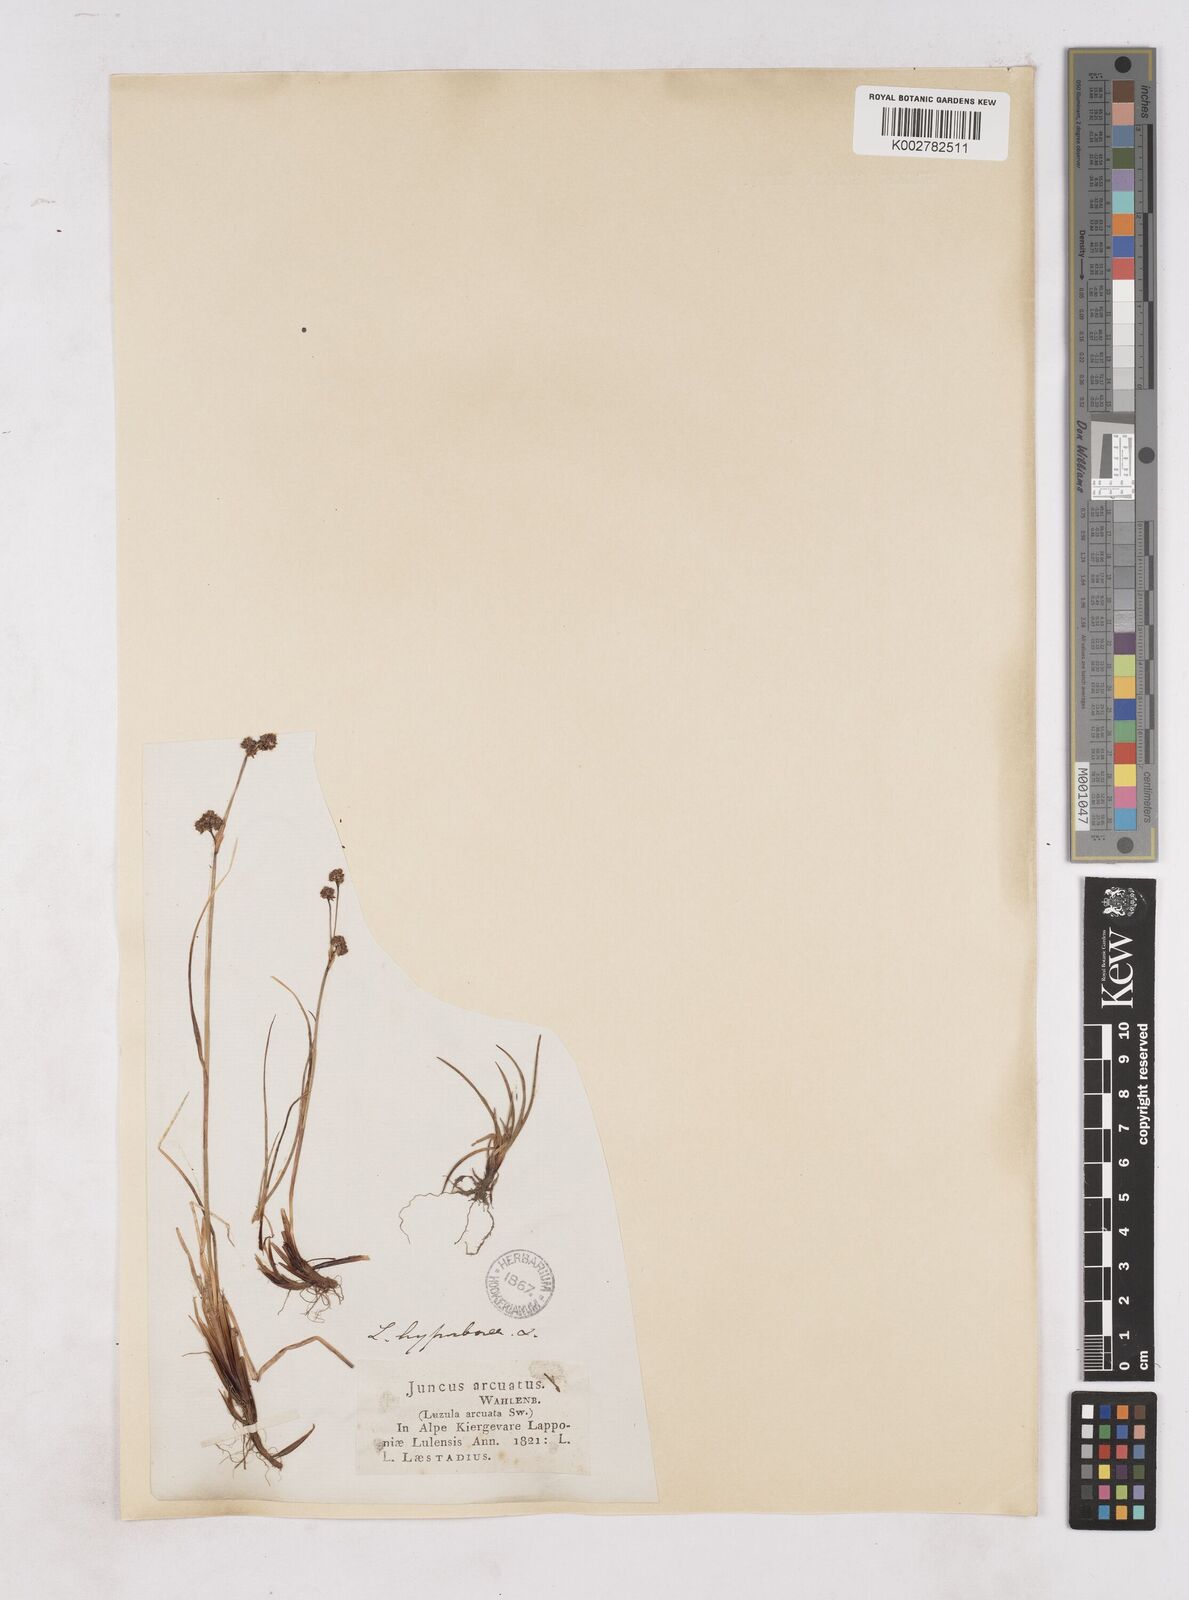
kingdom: Plantae
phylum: Tracheophyta
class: Liliopsida
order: Poales
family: Juncaceae
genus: Luzula
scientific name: Luzula arcuata
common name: Curved wood-rush
